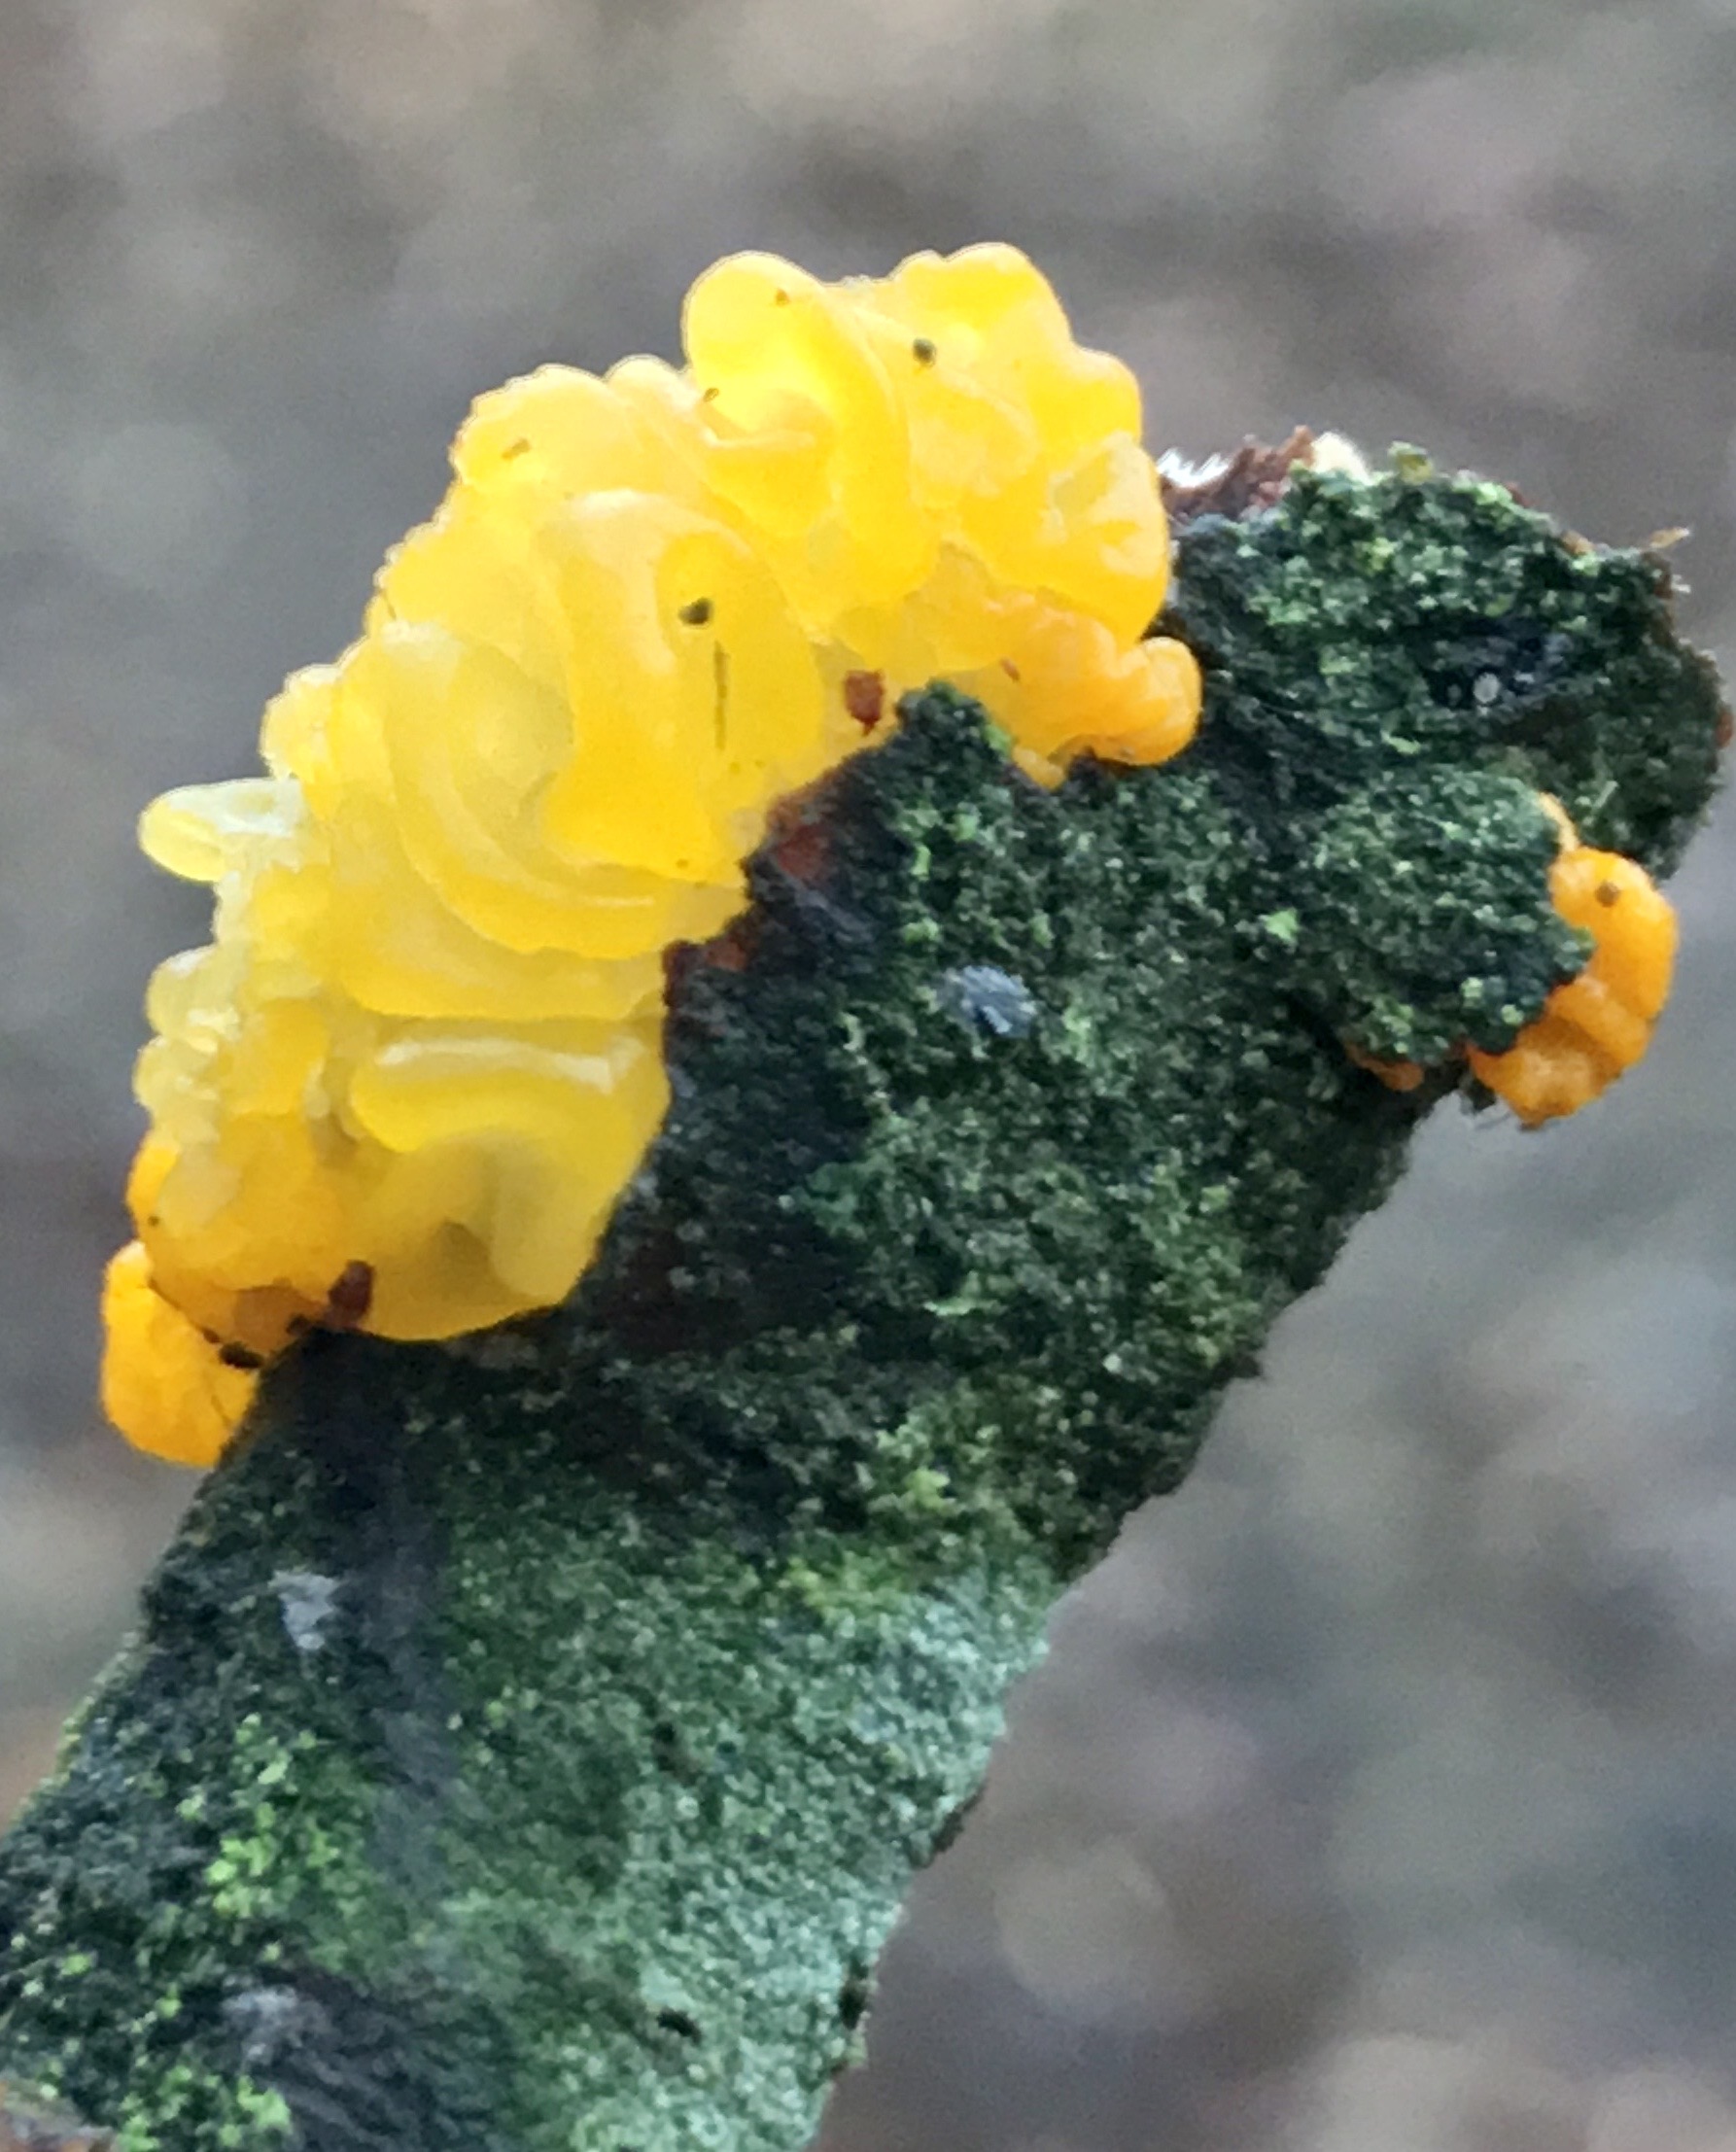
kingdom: Fungi
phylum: Basidiomycota
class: Tremellomycetes
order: Tremellales
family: Tremellaceae
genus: Tremella
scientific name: Tremella mesenterica
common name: gul bævresvamp
